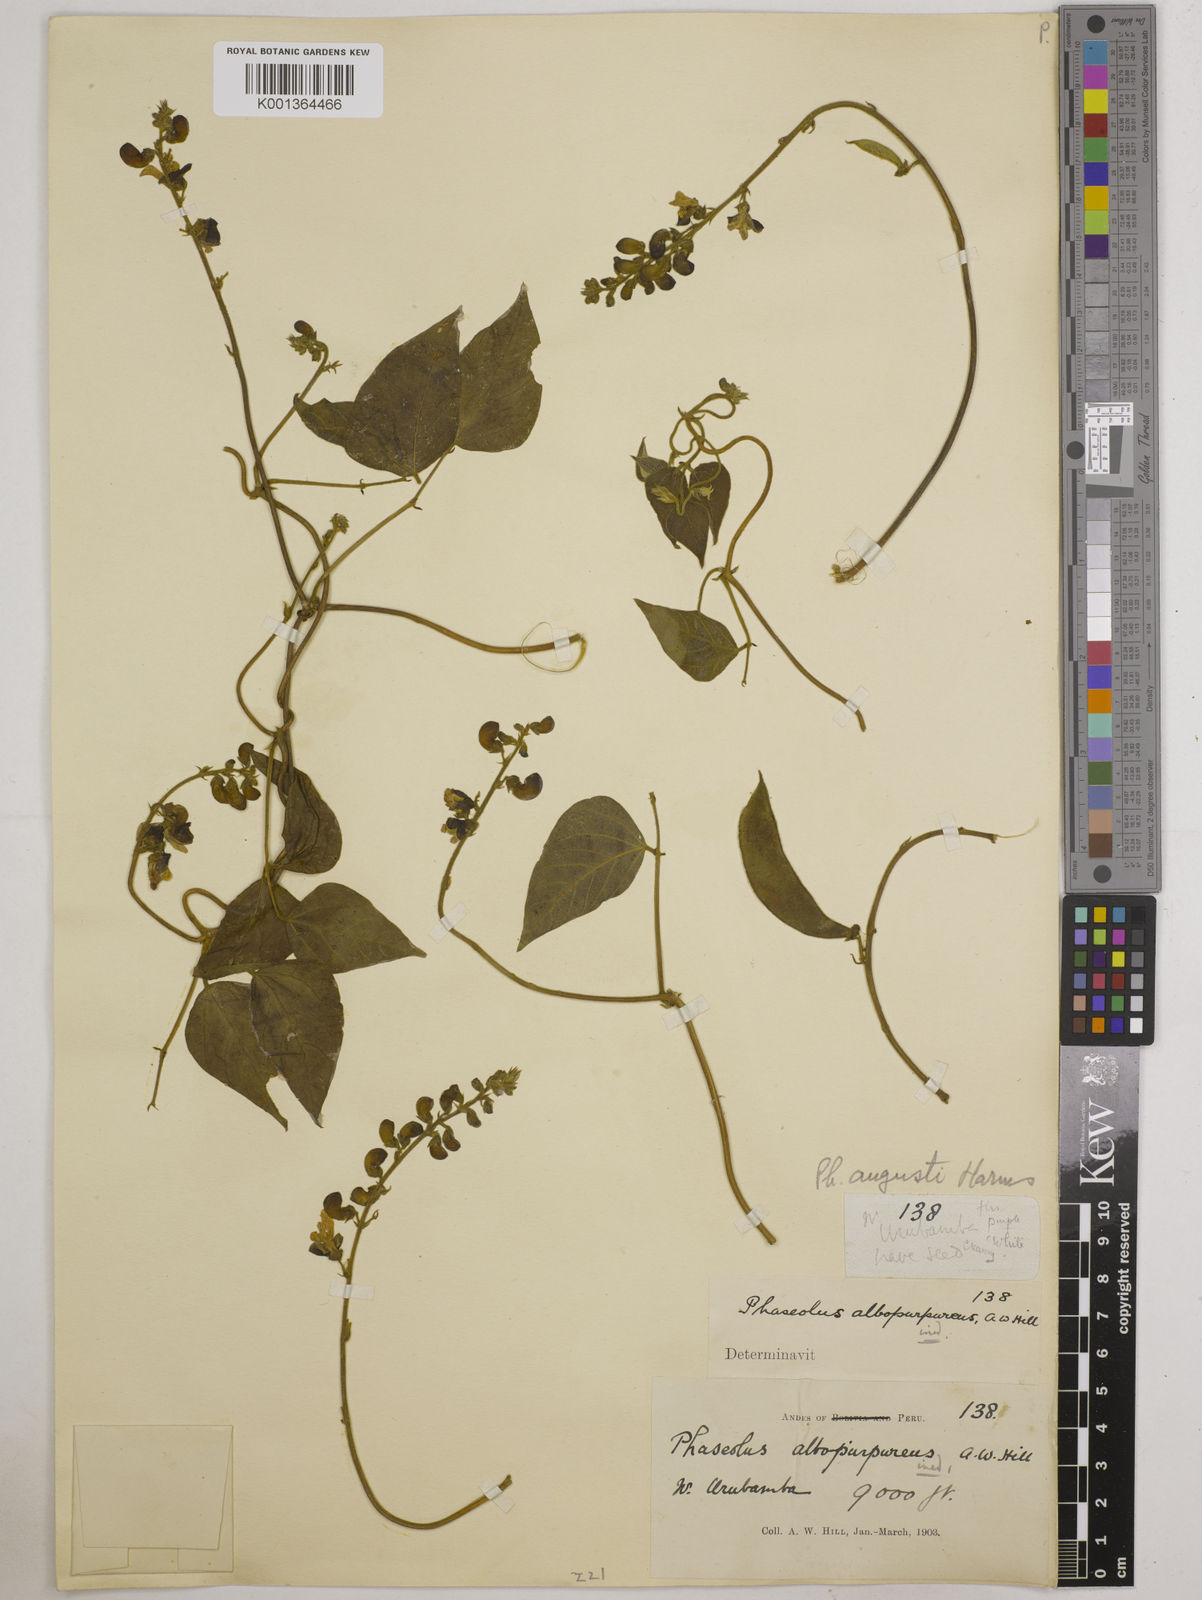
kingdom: Plantae
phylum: Tracheophyta
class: Magnoliopsida
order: Fabales
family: Fabaceae
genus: Phaseolus
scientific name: Phaseolus augusti
